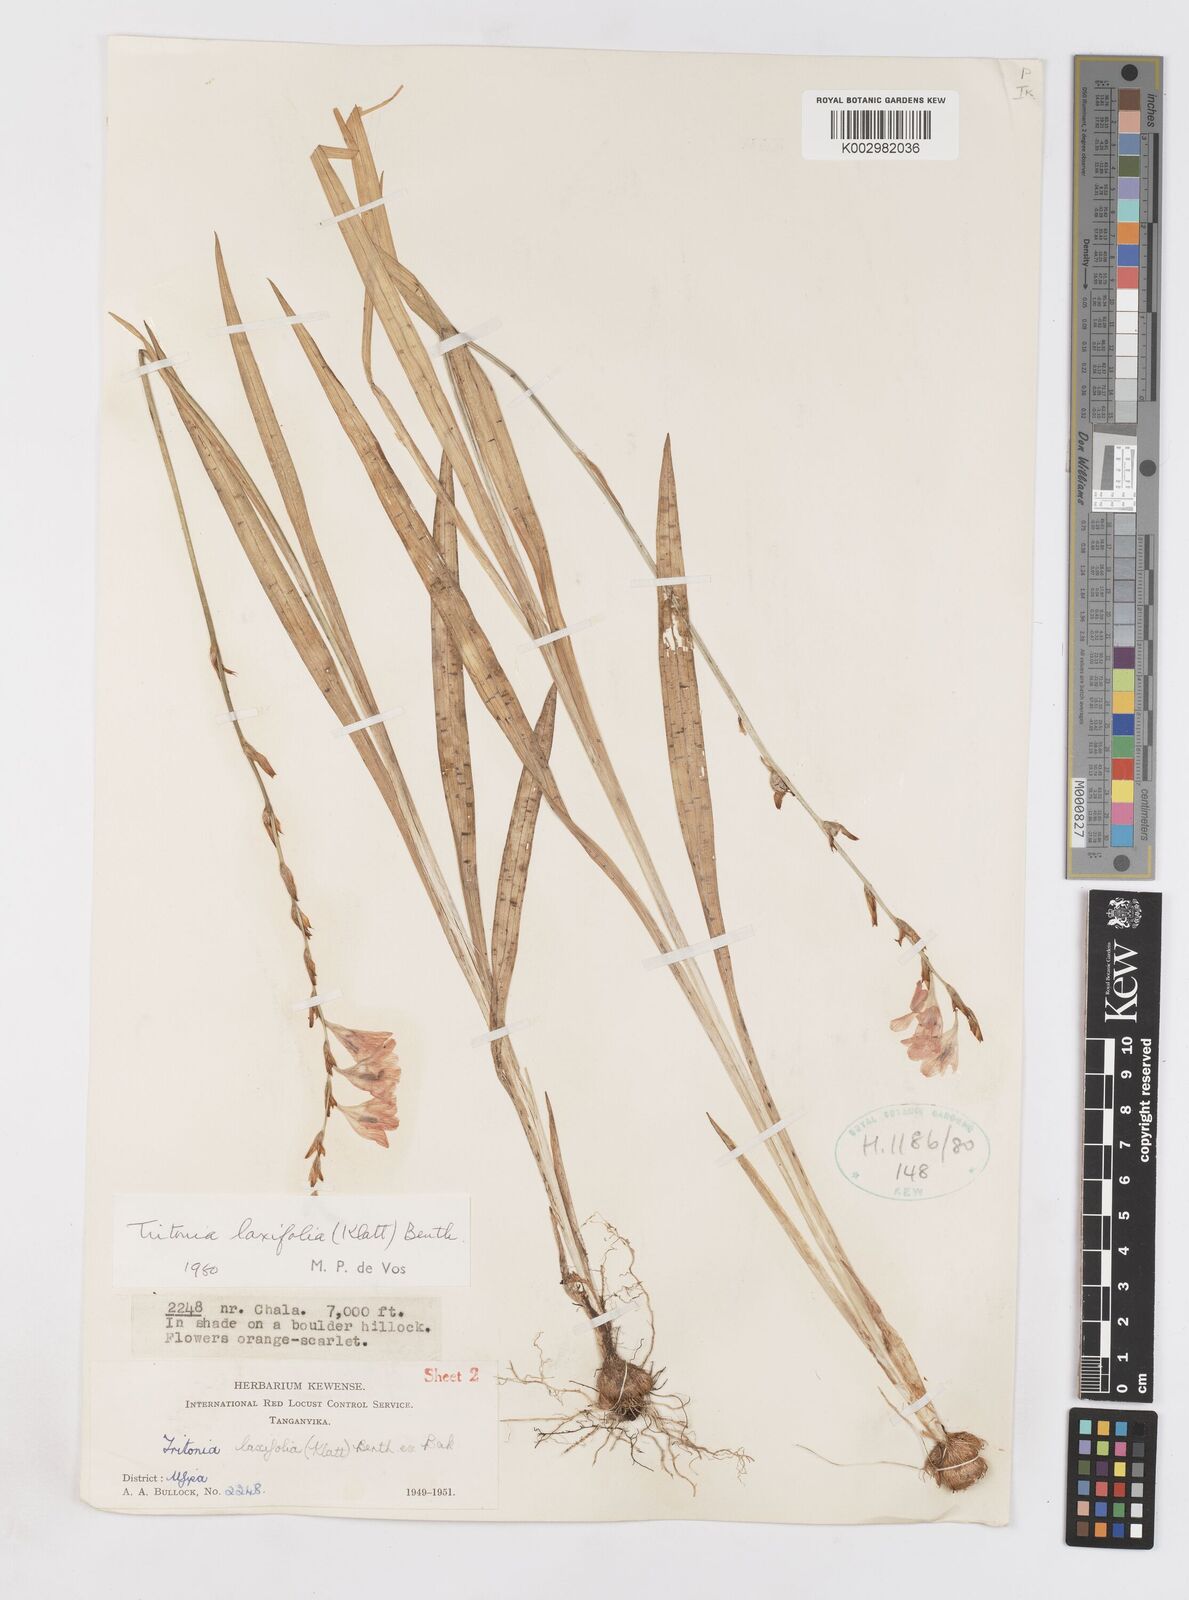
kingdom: Plantae
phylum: Tracheophyta
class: Liliopsida
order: Asparagales
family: Iridaceae
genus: Tritonia
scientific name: Tritonia laxifolia
